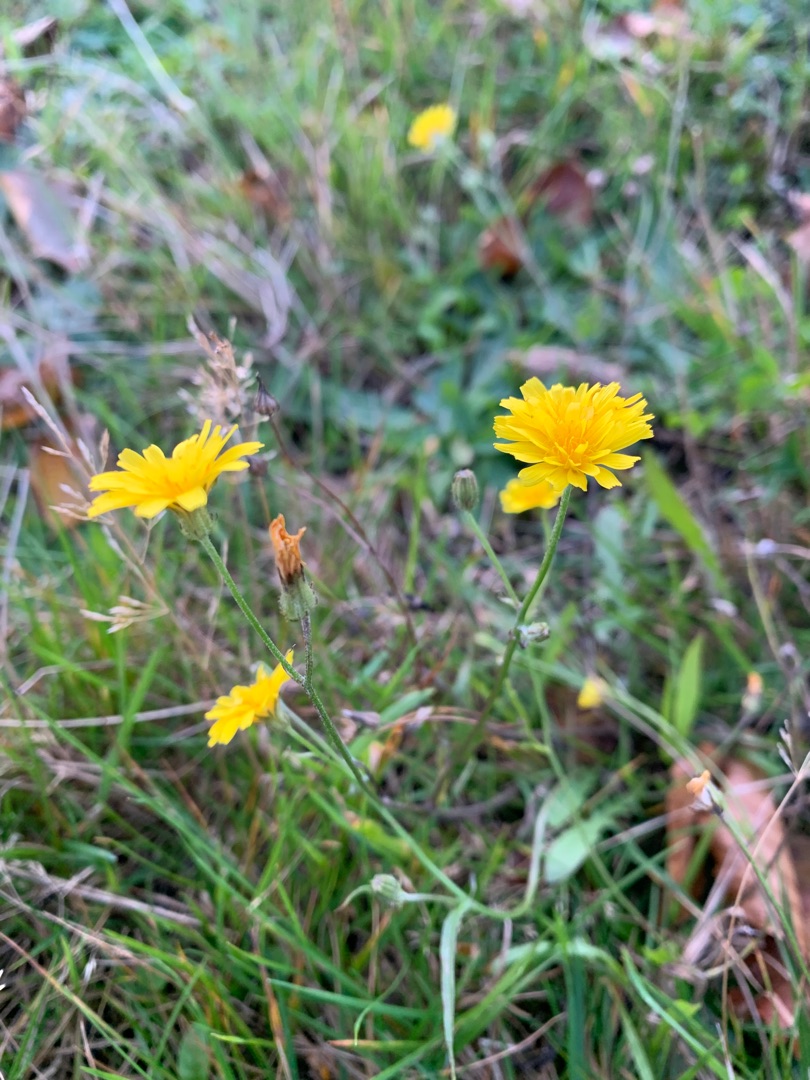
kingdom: Plantae
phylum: Tracheophyta
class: Magnoliopsida
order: Asterales
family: Asteraceae
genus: Crepis
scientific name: Crepis capillaris
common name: Grøn høgeskæg
